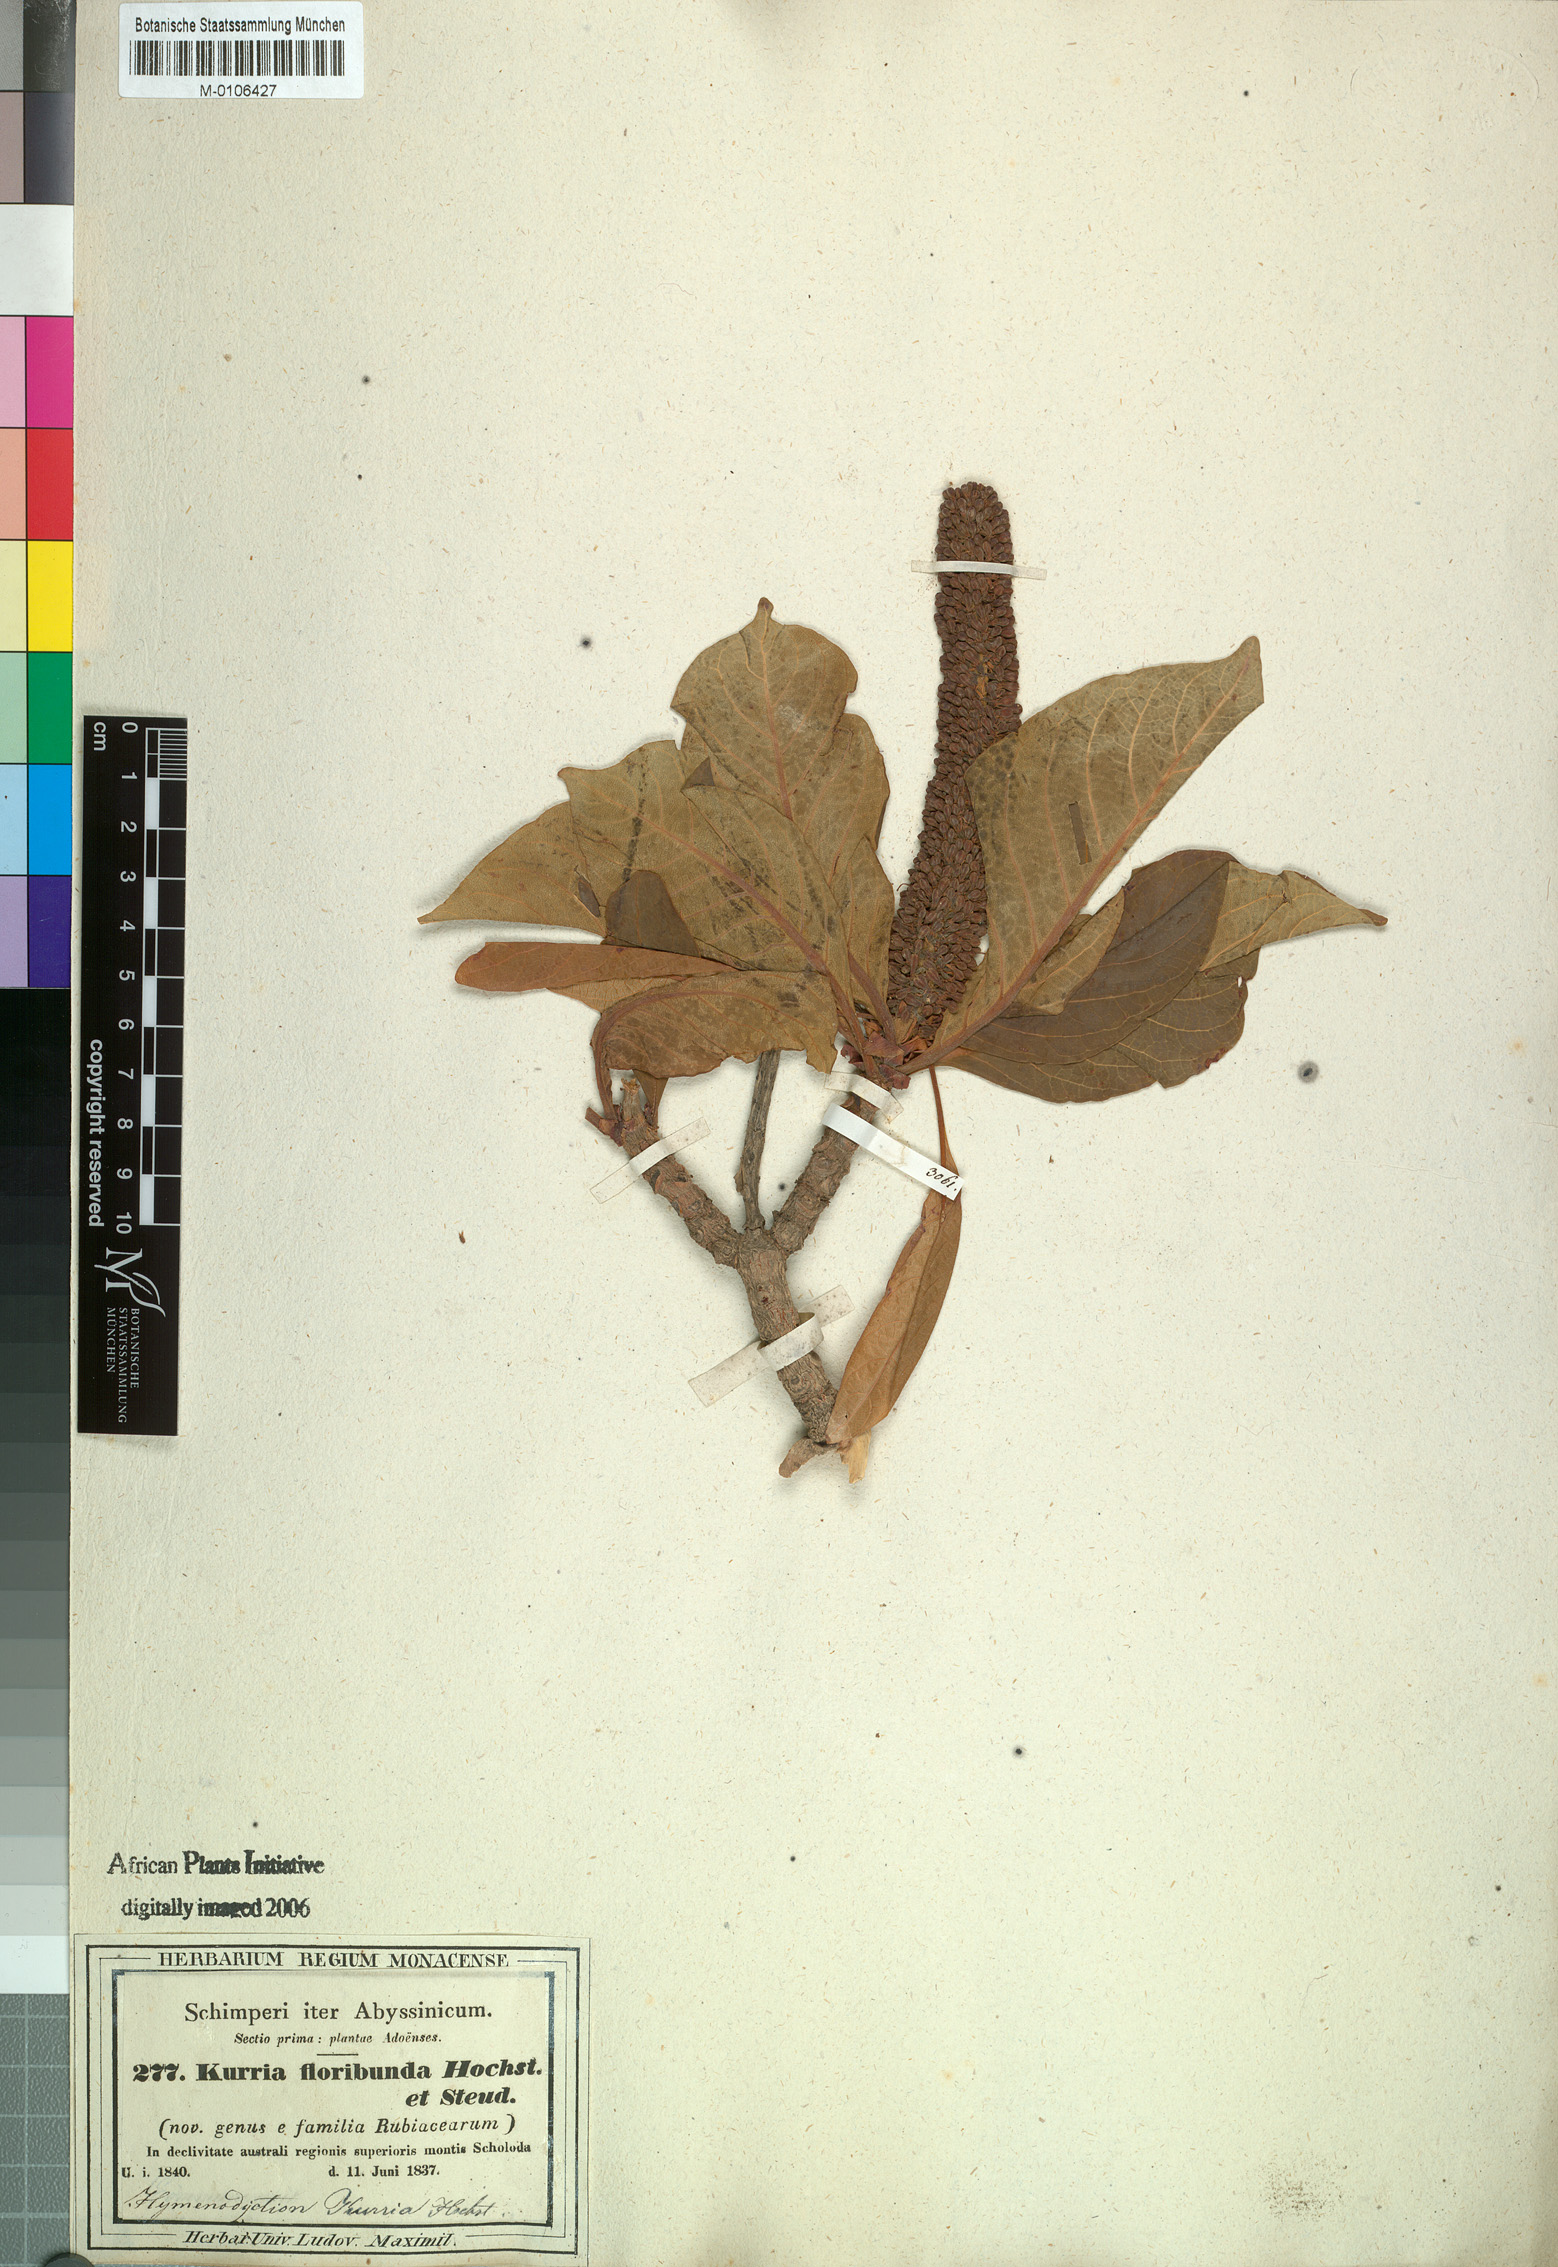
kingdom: Plantae
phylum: Tracheophyta
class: Magnoliopsida
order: Gentianales
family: Rubiaceae
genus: Hymenodictyon
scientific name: Hymenodictyon floribundum
